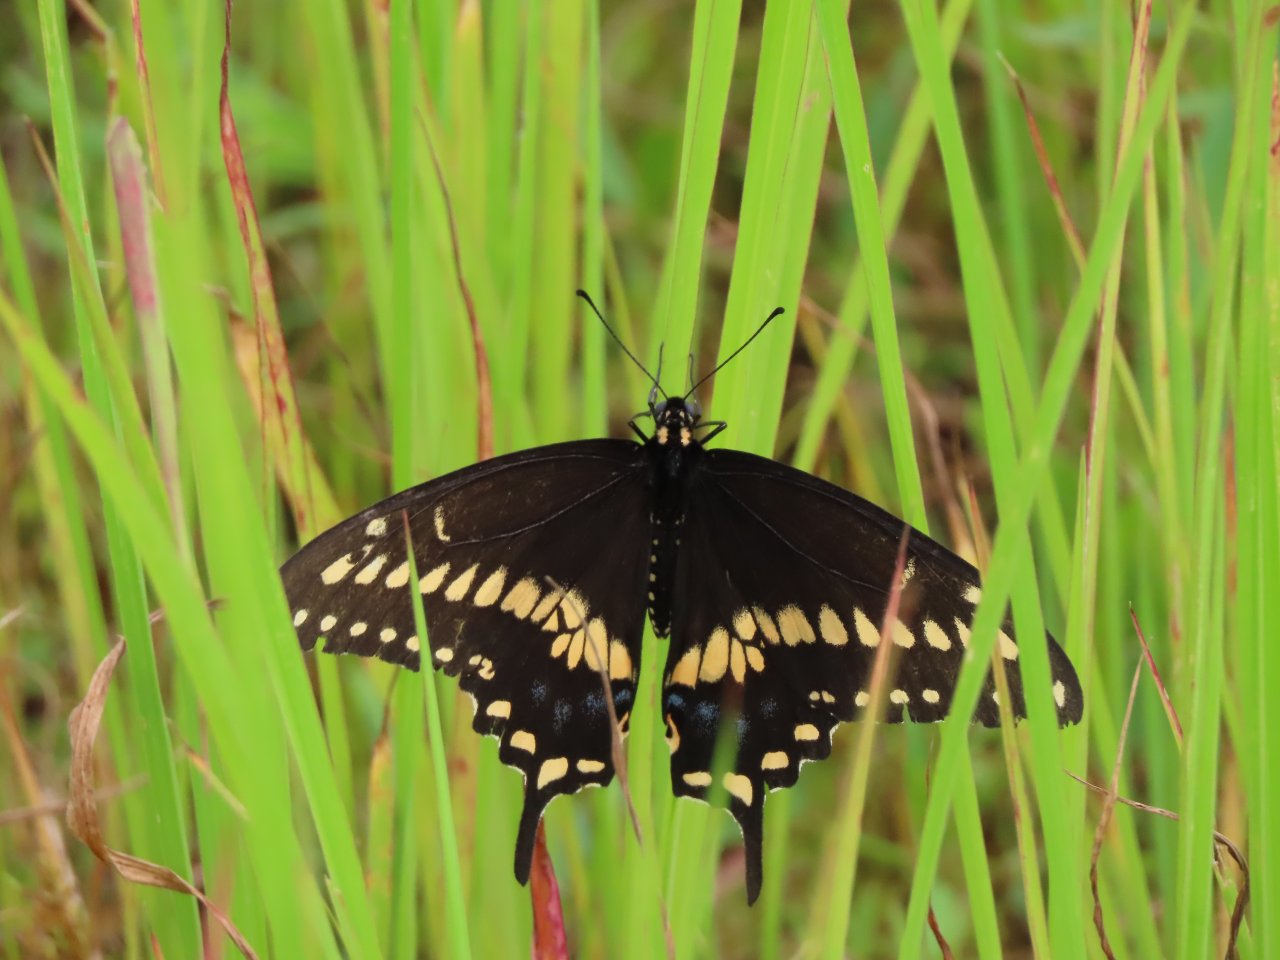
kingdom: Animalia
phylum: Arthropoda
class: Insecta
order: Lepidoptera
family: Papilionidae
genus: Papilio
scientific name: Papilio polyxenes
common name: Black Swallowtail
